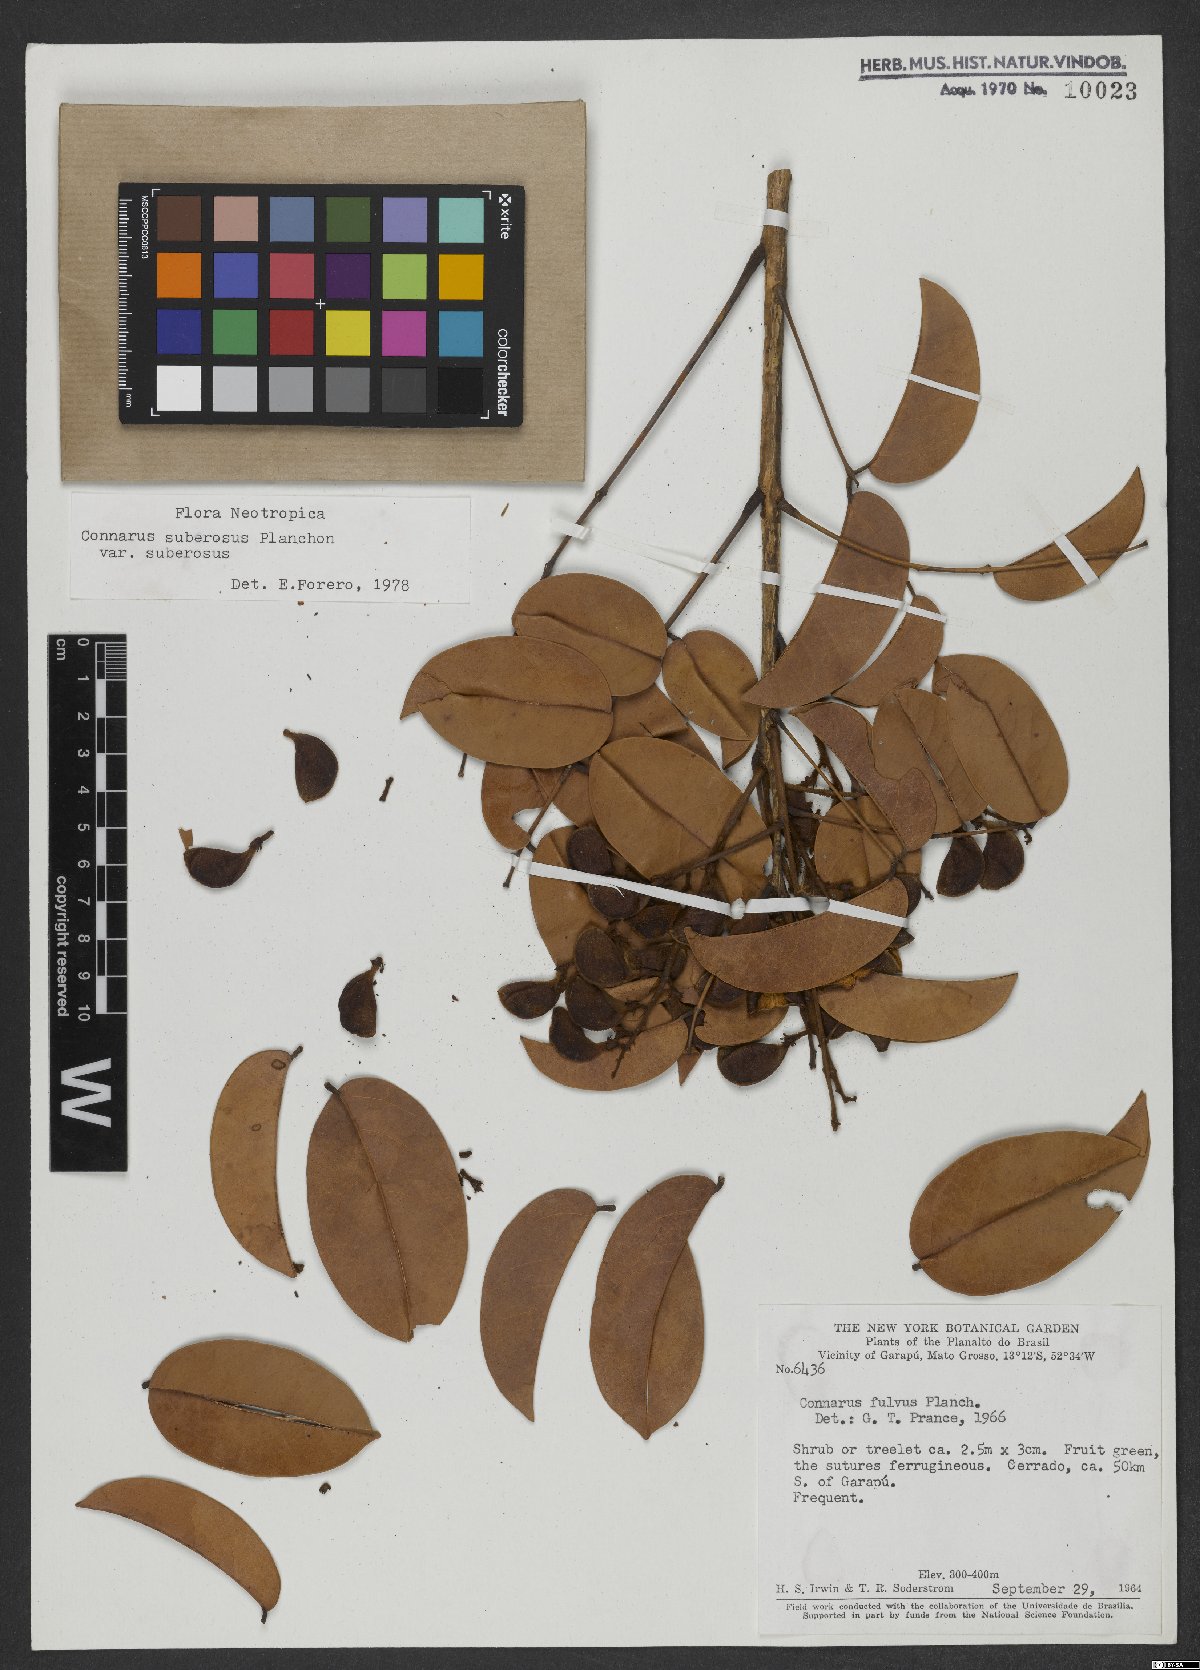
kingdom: Plantae
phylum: Tracheophyta
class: Magnoliopsida
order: Oxalidales
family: Connaraceae
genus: Connarus
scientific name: Connarus suberosus
